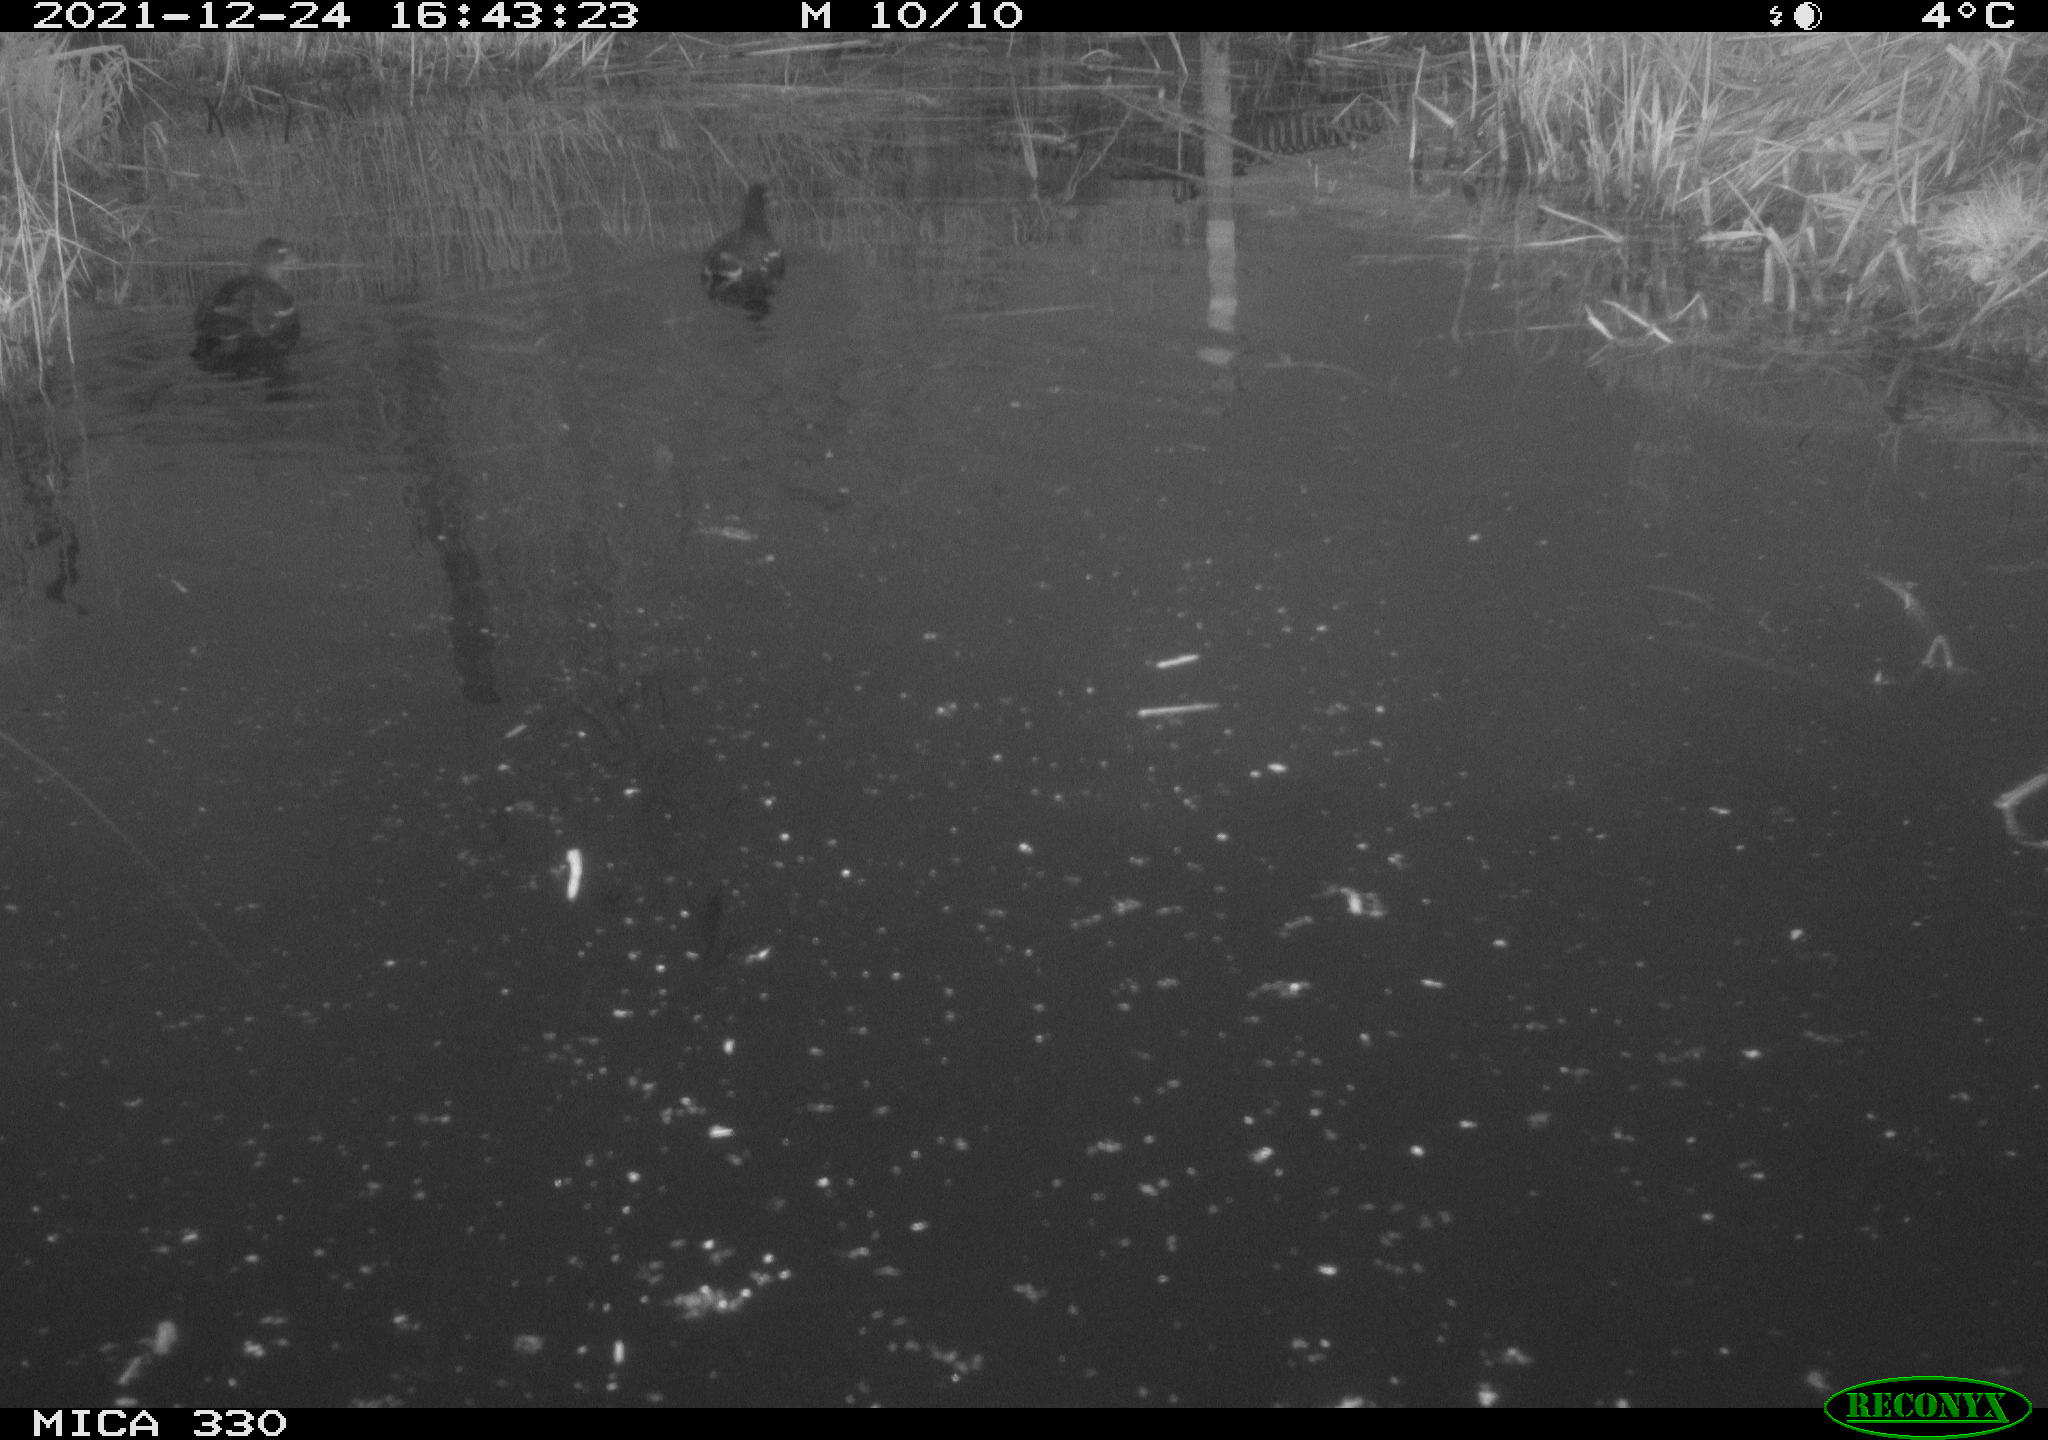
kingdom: Animalia
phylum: Chordata
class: Aves
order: Gruiformes
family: Rallidae
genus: Gallinula
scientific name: Gallinula chloropus
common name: Common moorhen
